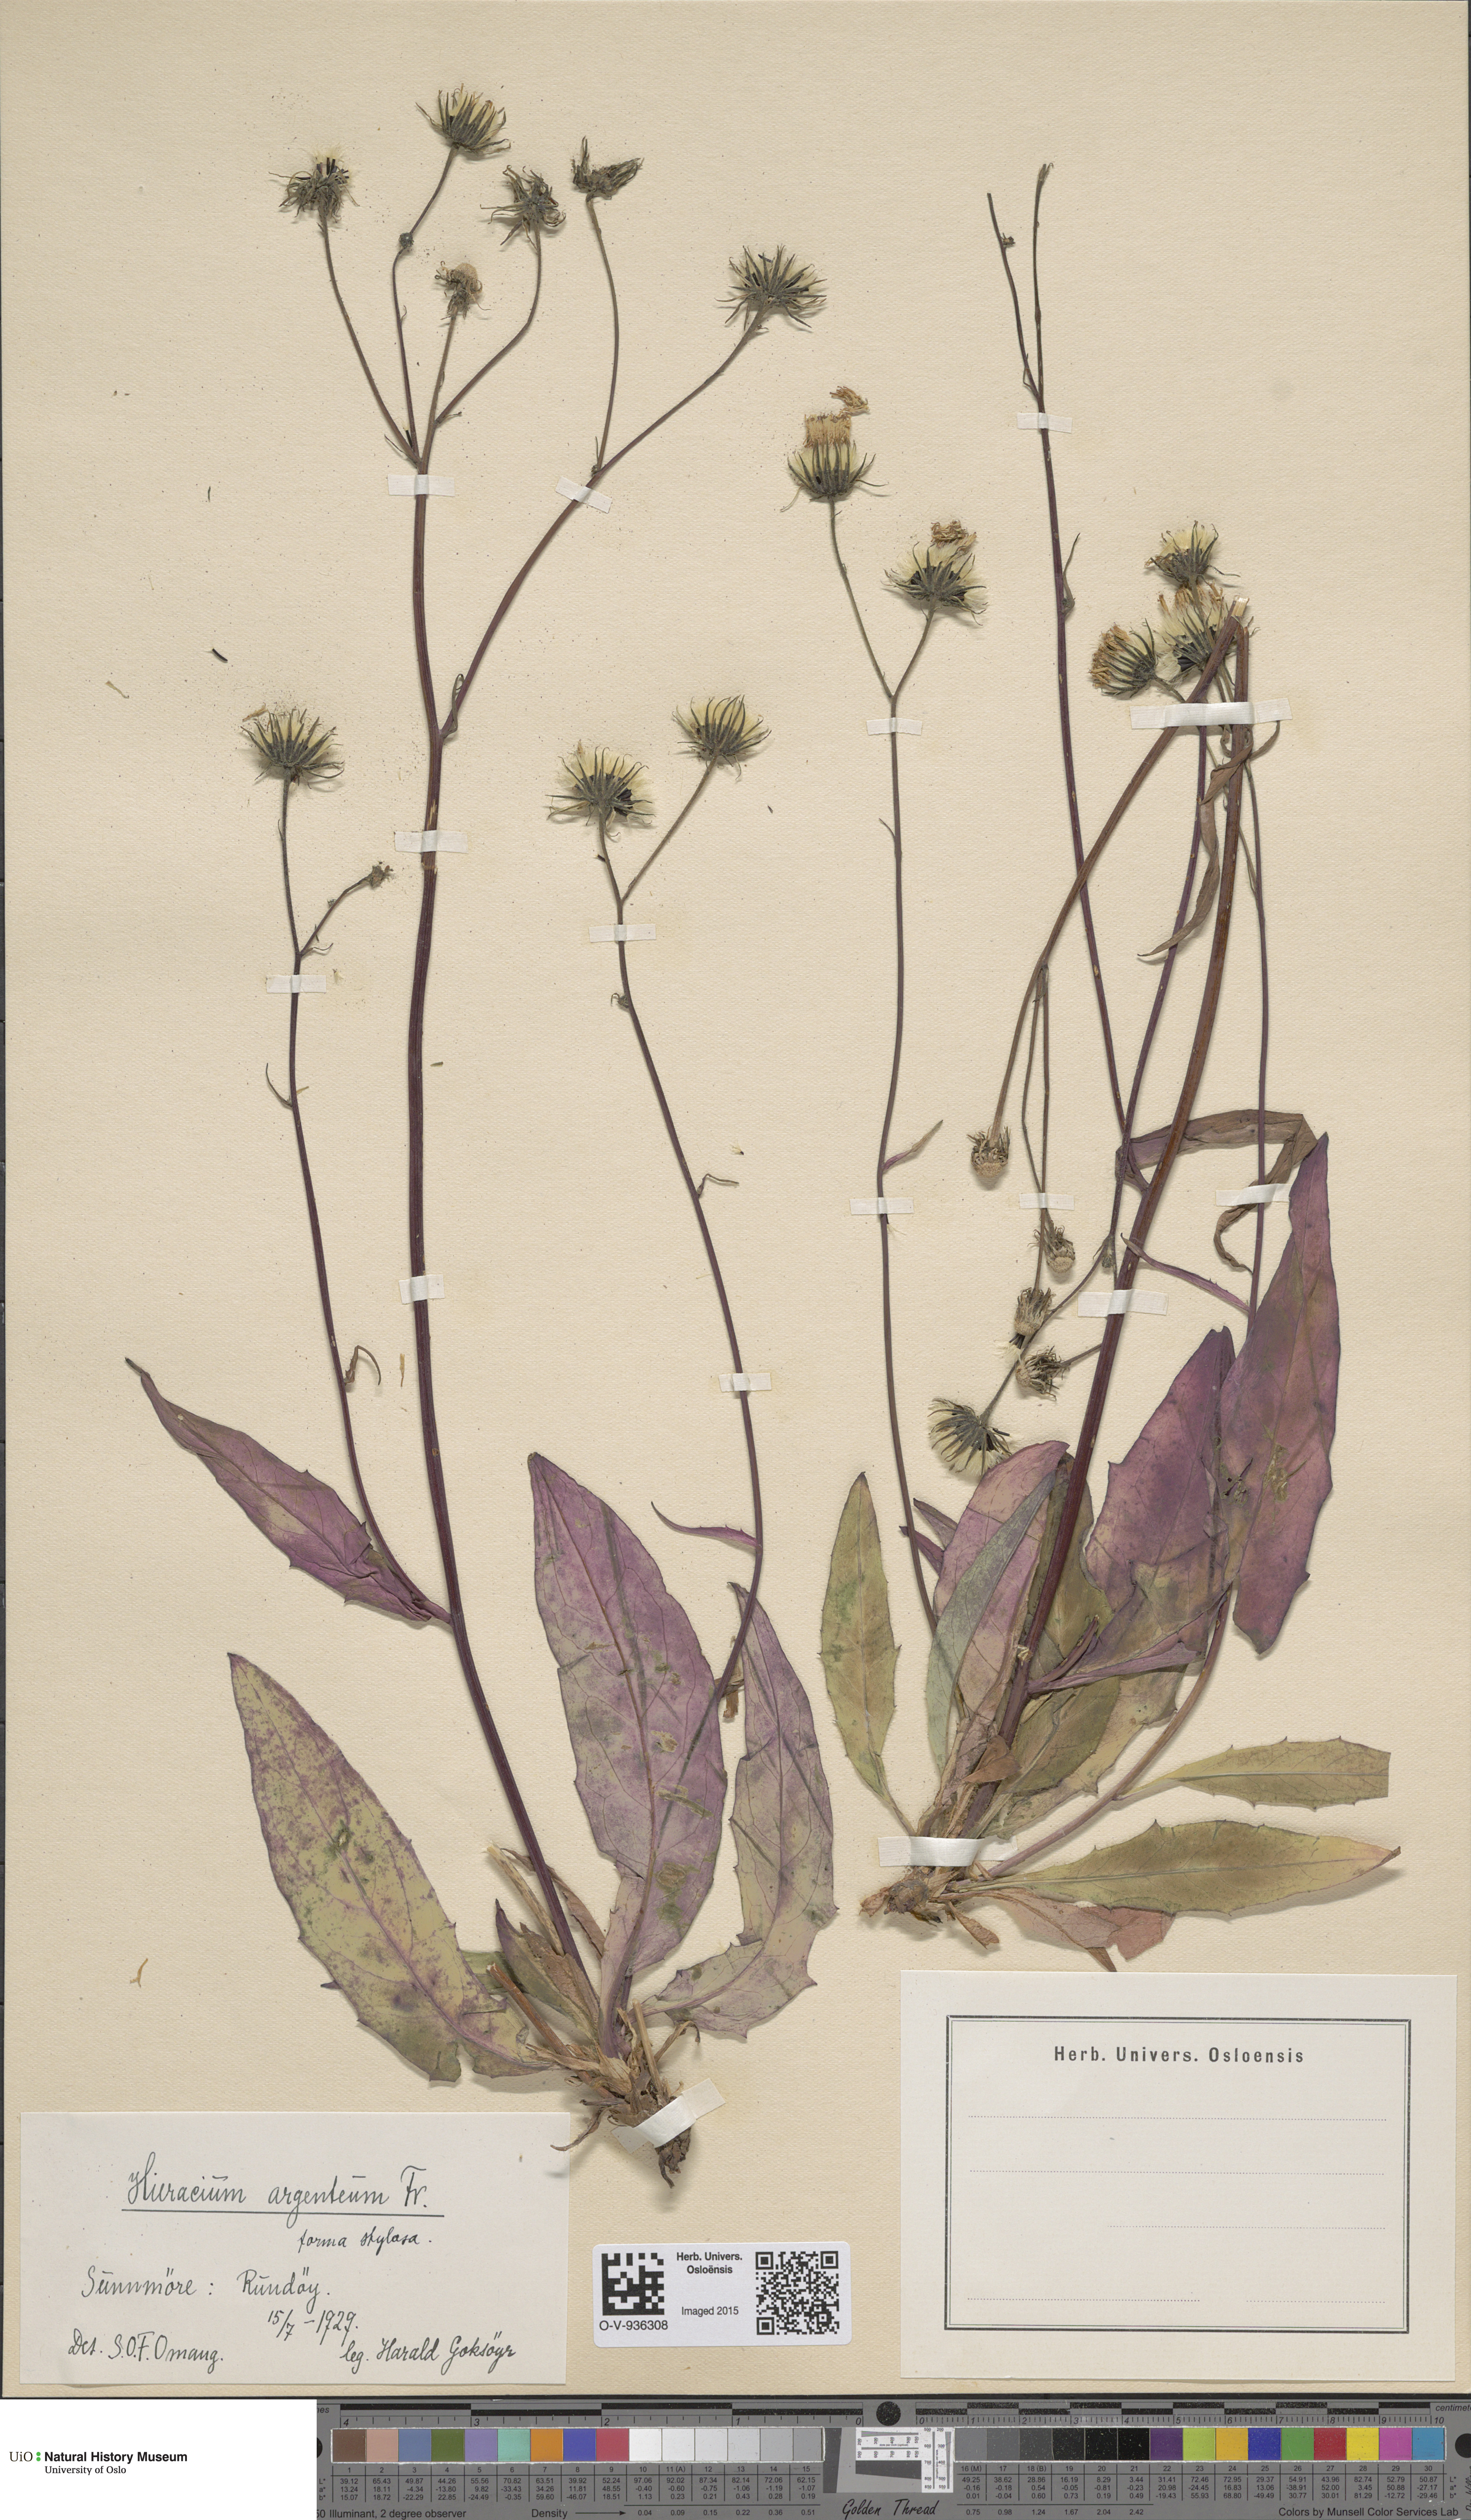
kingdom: Plantae
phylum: Tracheophyta
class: Magnoliopsida
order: Asterales
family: Asteraceae
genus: Hieracium
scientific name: Hieracium argenteum
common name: Silver hawkweed
